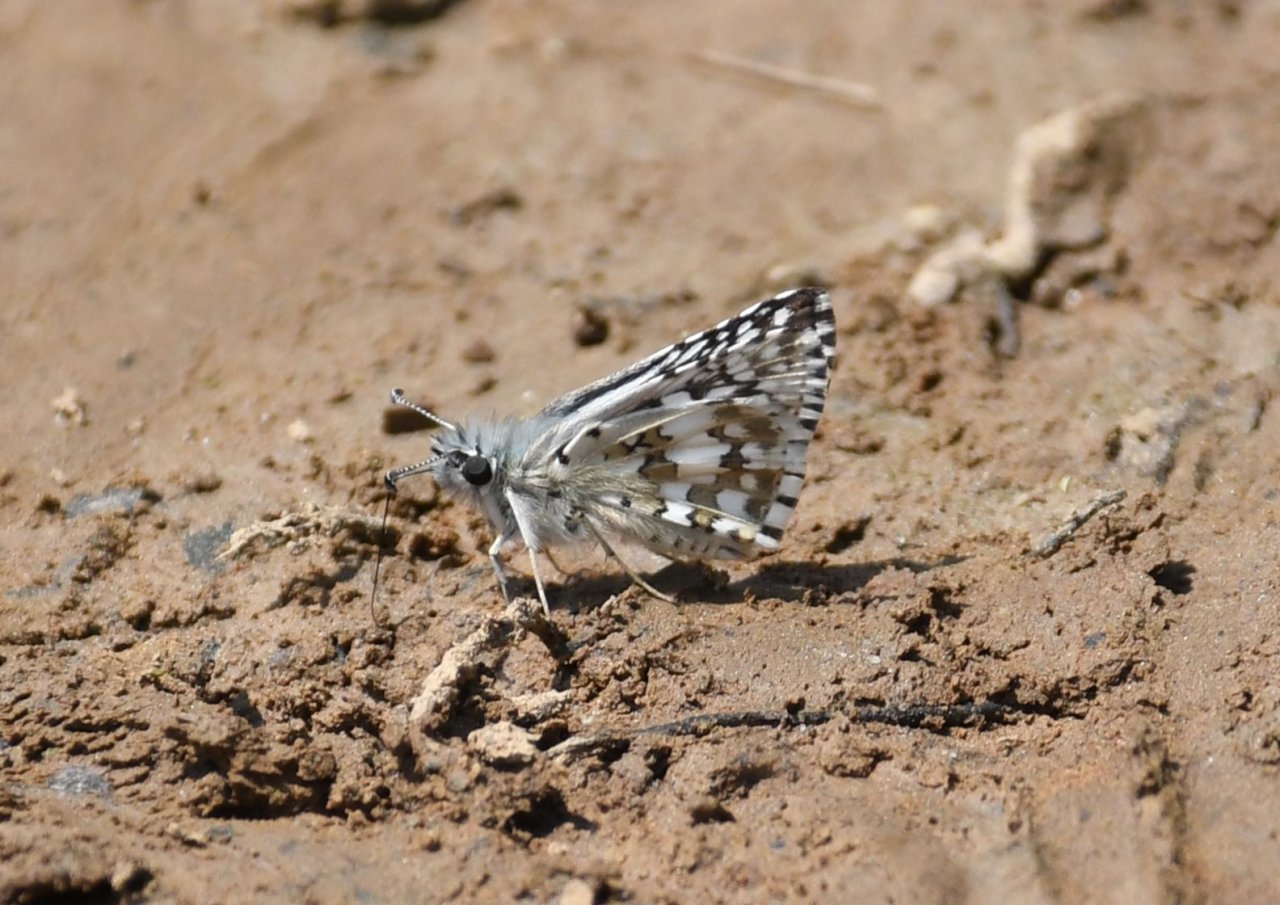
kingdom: Animalia
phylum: Arthropoda
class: Insecta
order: Lepidoptera
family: Hesperiidae
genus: Pyrgus
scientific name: Pyrgus communis
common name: Common Checkered-Skipper
